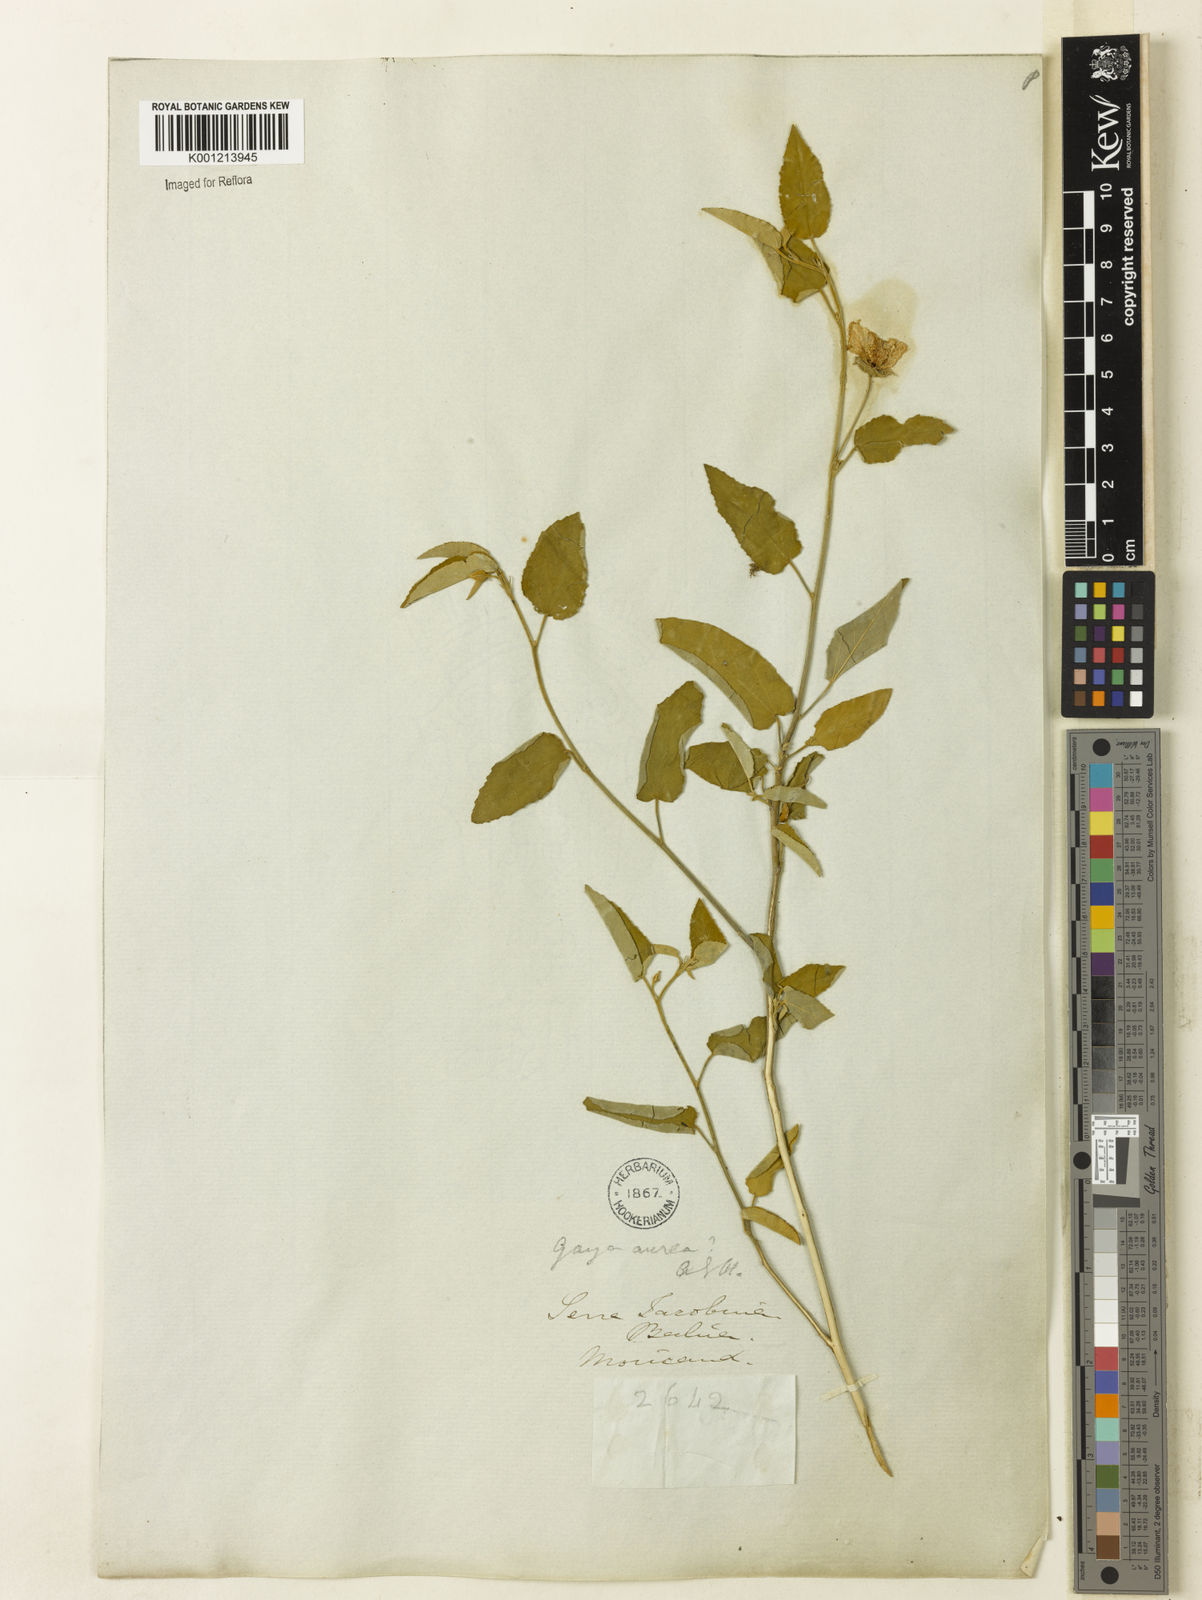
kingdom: Plantae
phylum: Tracheophyta
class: Magnoliopsida
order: Malvales
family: Malvaceae
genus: Gaya
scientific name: Gaya aurea
